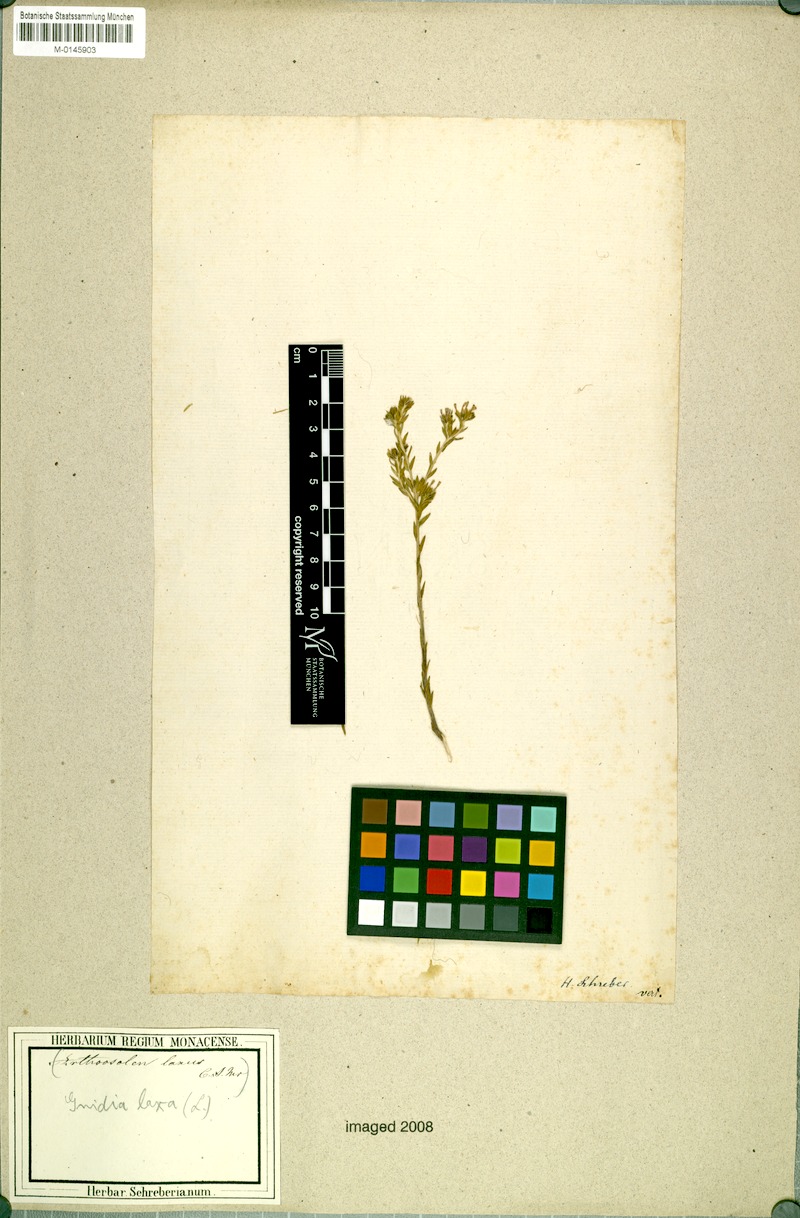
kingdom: Plantae
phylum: Tracheophyta
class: Magnoliopsida
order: Malvales
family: Thymelaeaceae
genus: Gnidia
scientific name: Gnidia laxa
